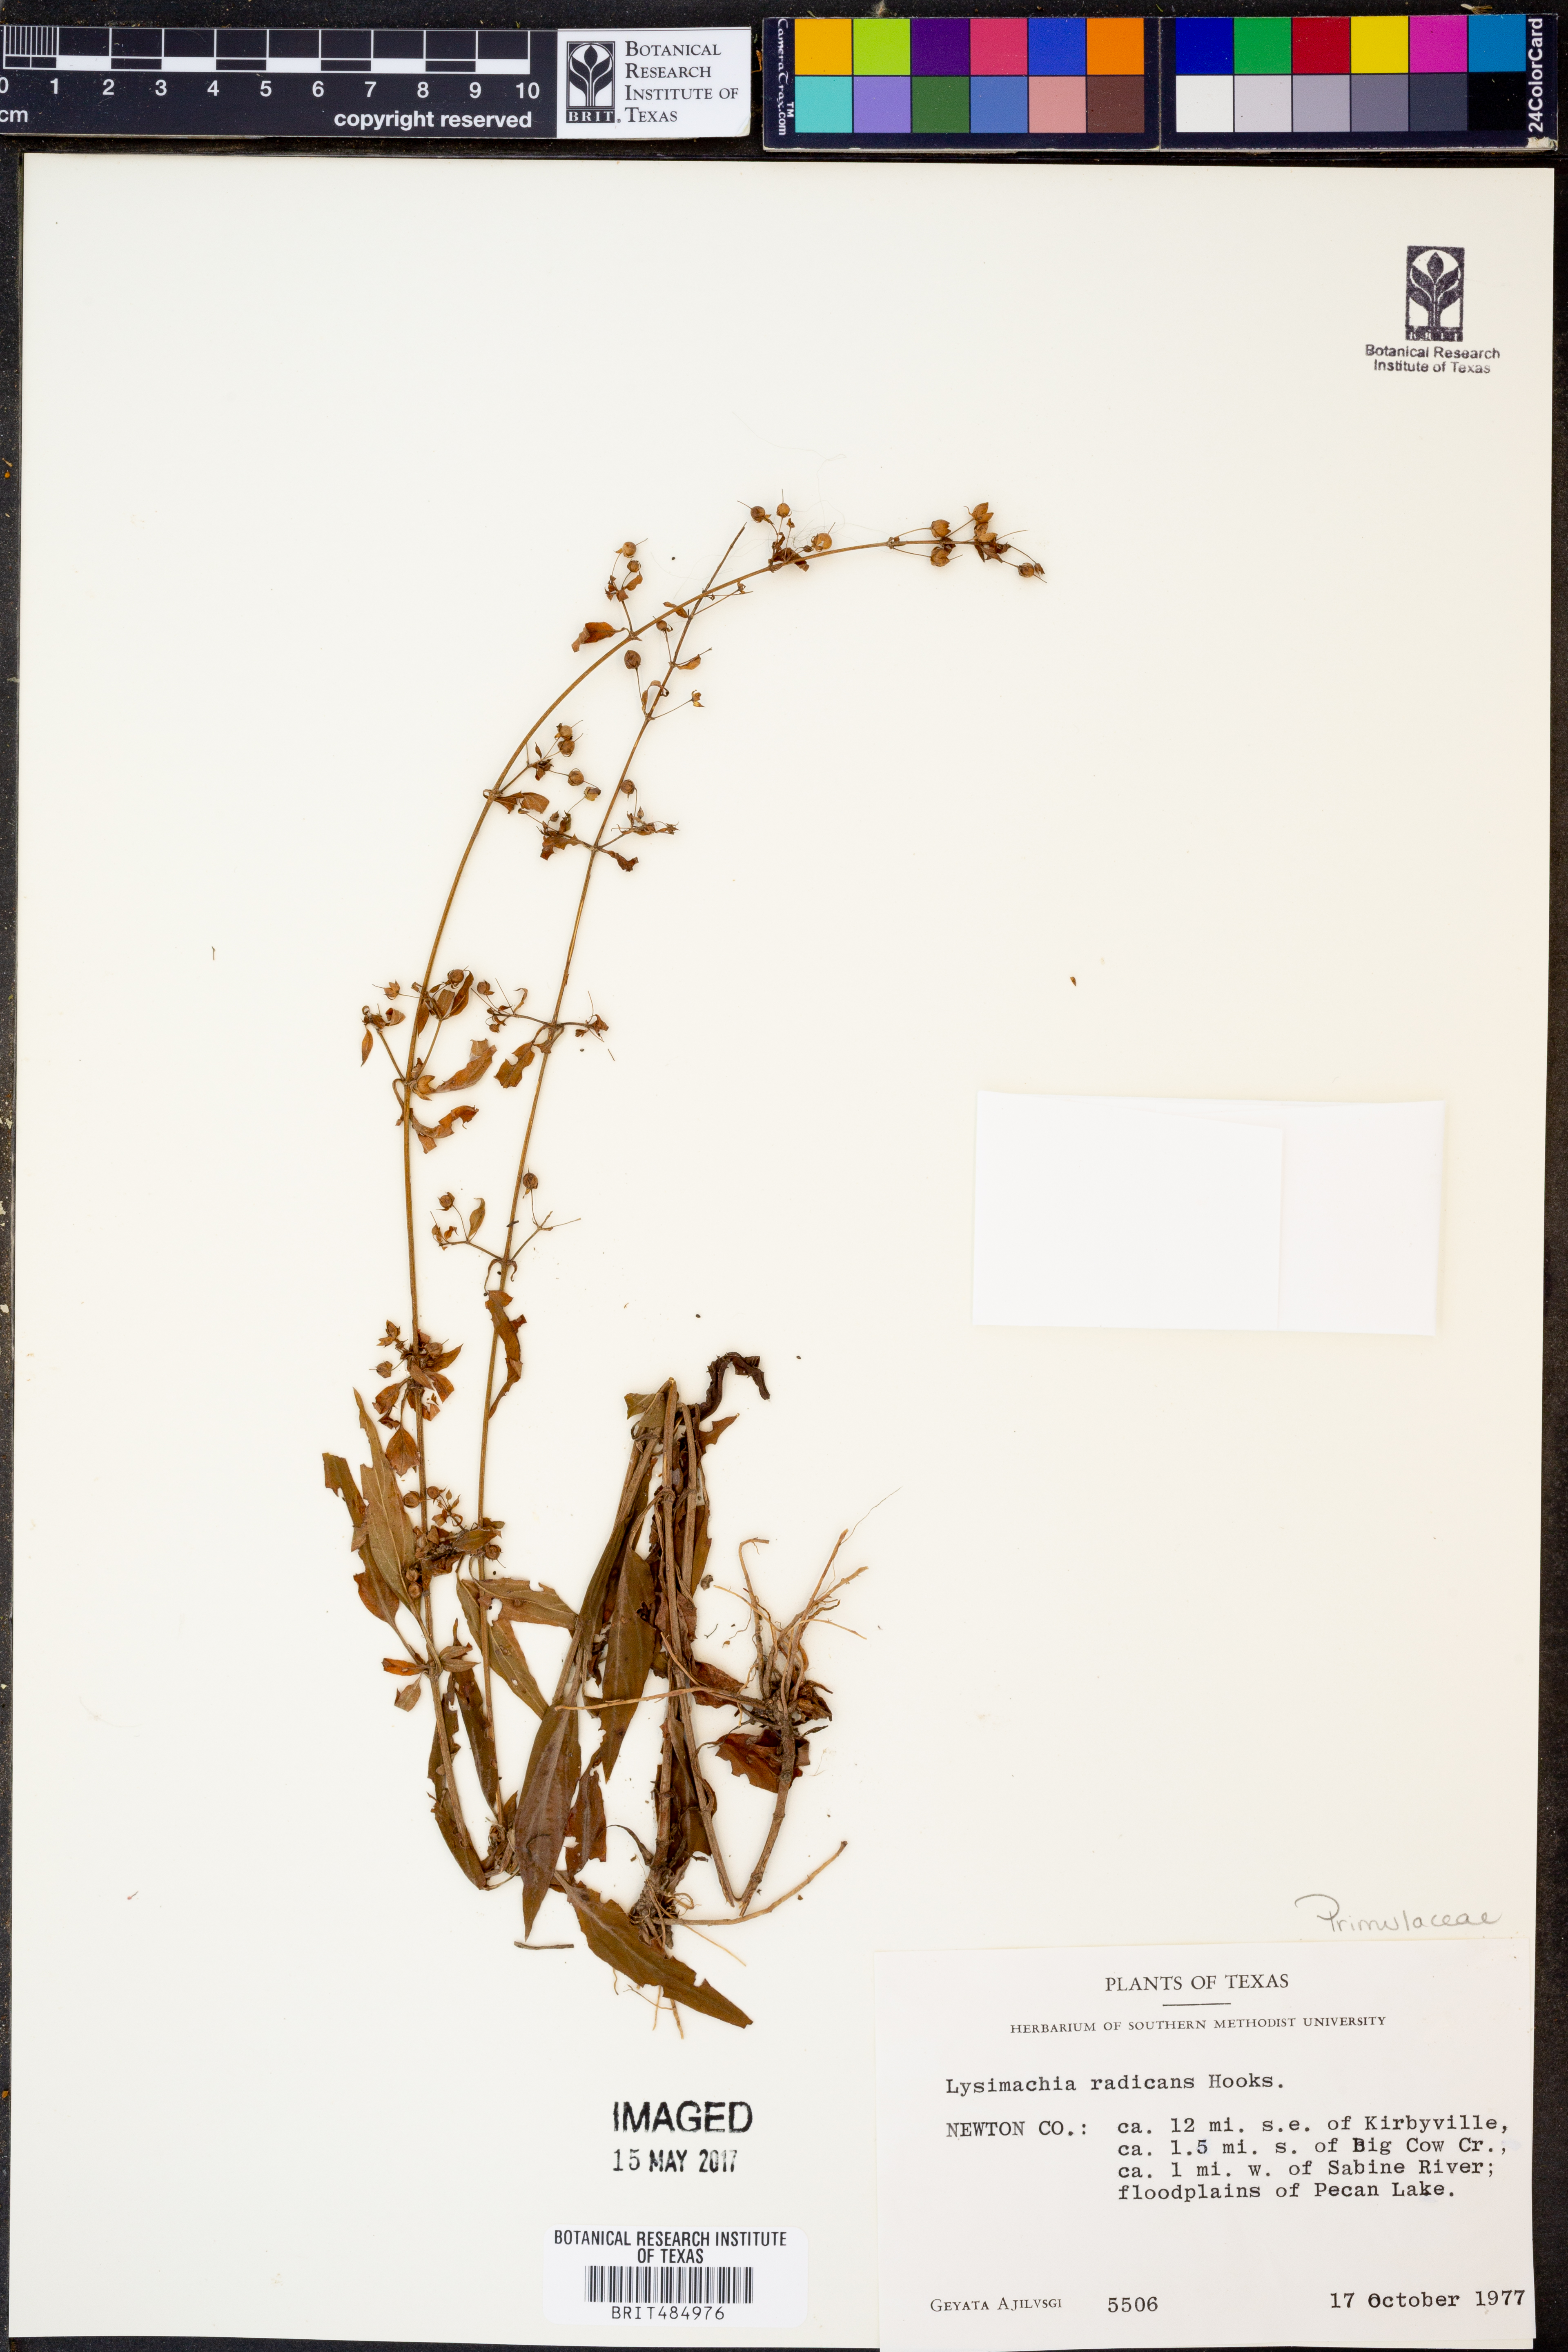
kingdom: Plantae
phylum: Tracheophyta
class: Magnoliopsida
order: Ericales
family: Primulaceae
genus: Lysimachia
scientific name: Lysimachia radicans
